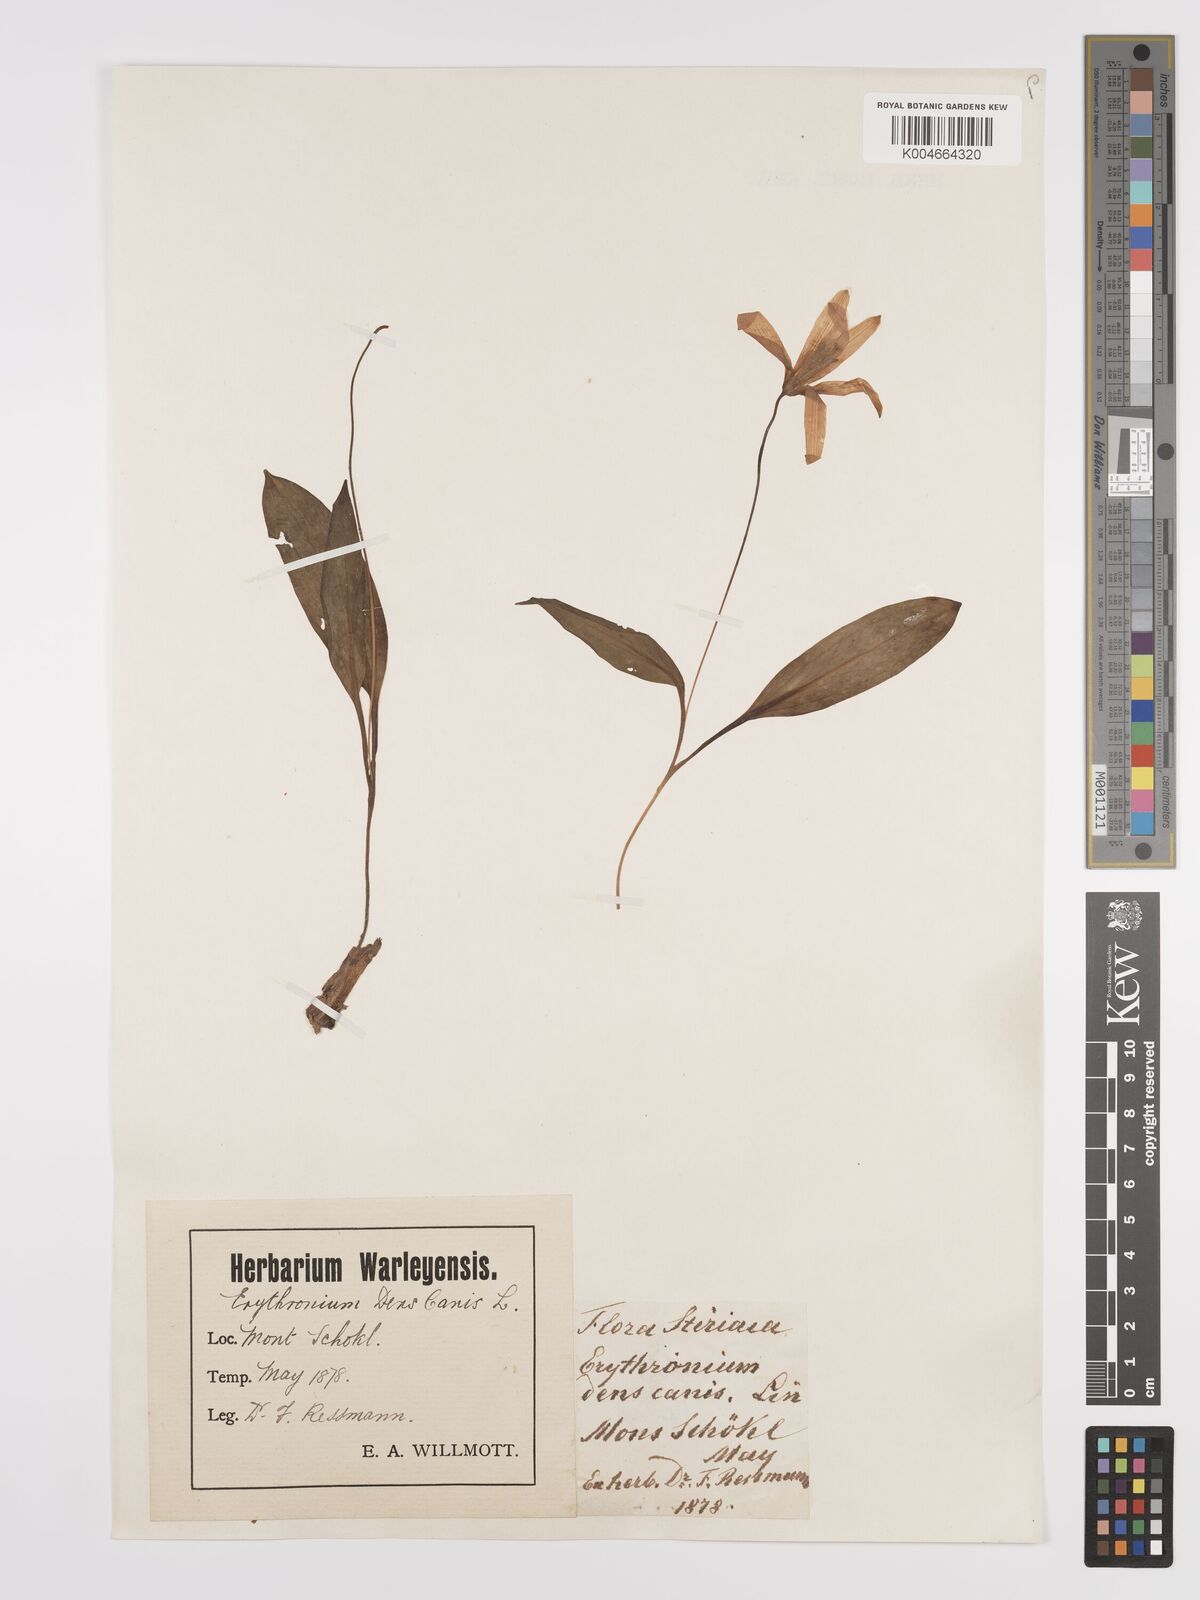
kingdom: Plantae
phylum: Tracheophyta
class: Liliopsida
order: Liliales
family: Liliaceae
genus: Erythronium
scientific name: Erythronium dens-canis
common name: Dog's-tooth-violet
